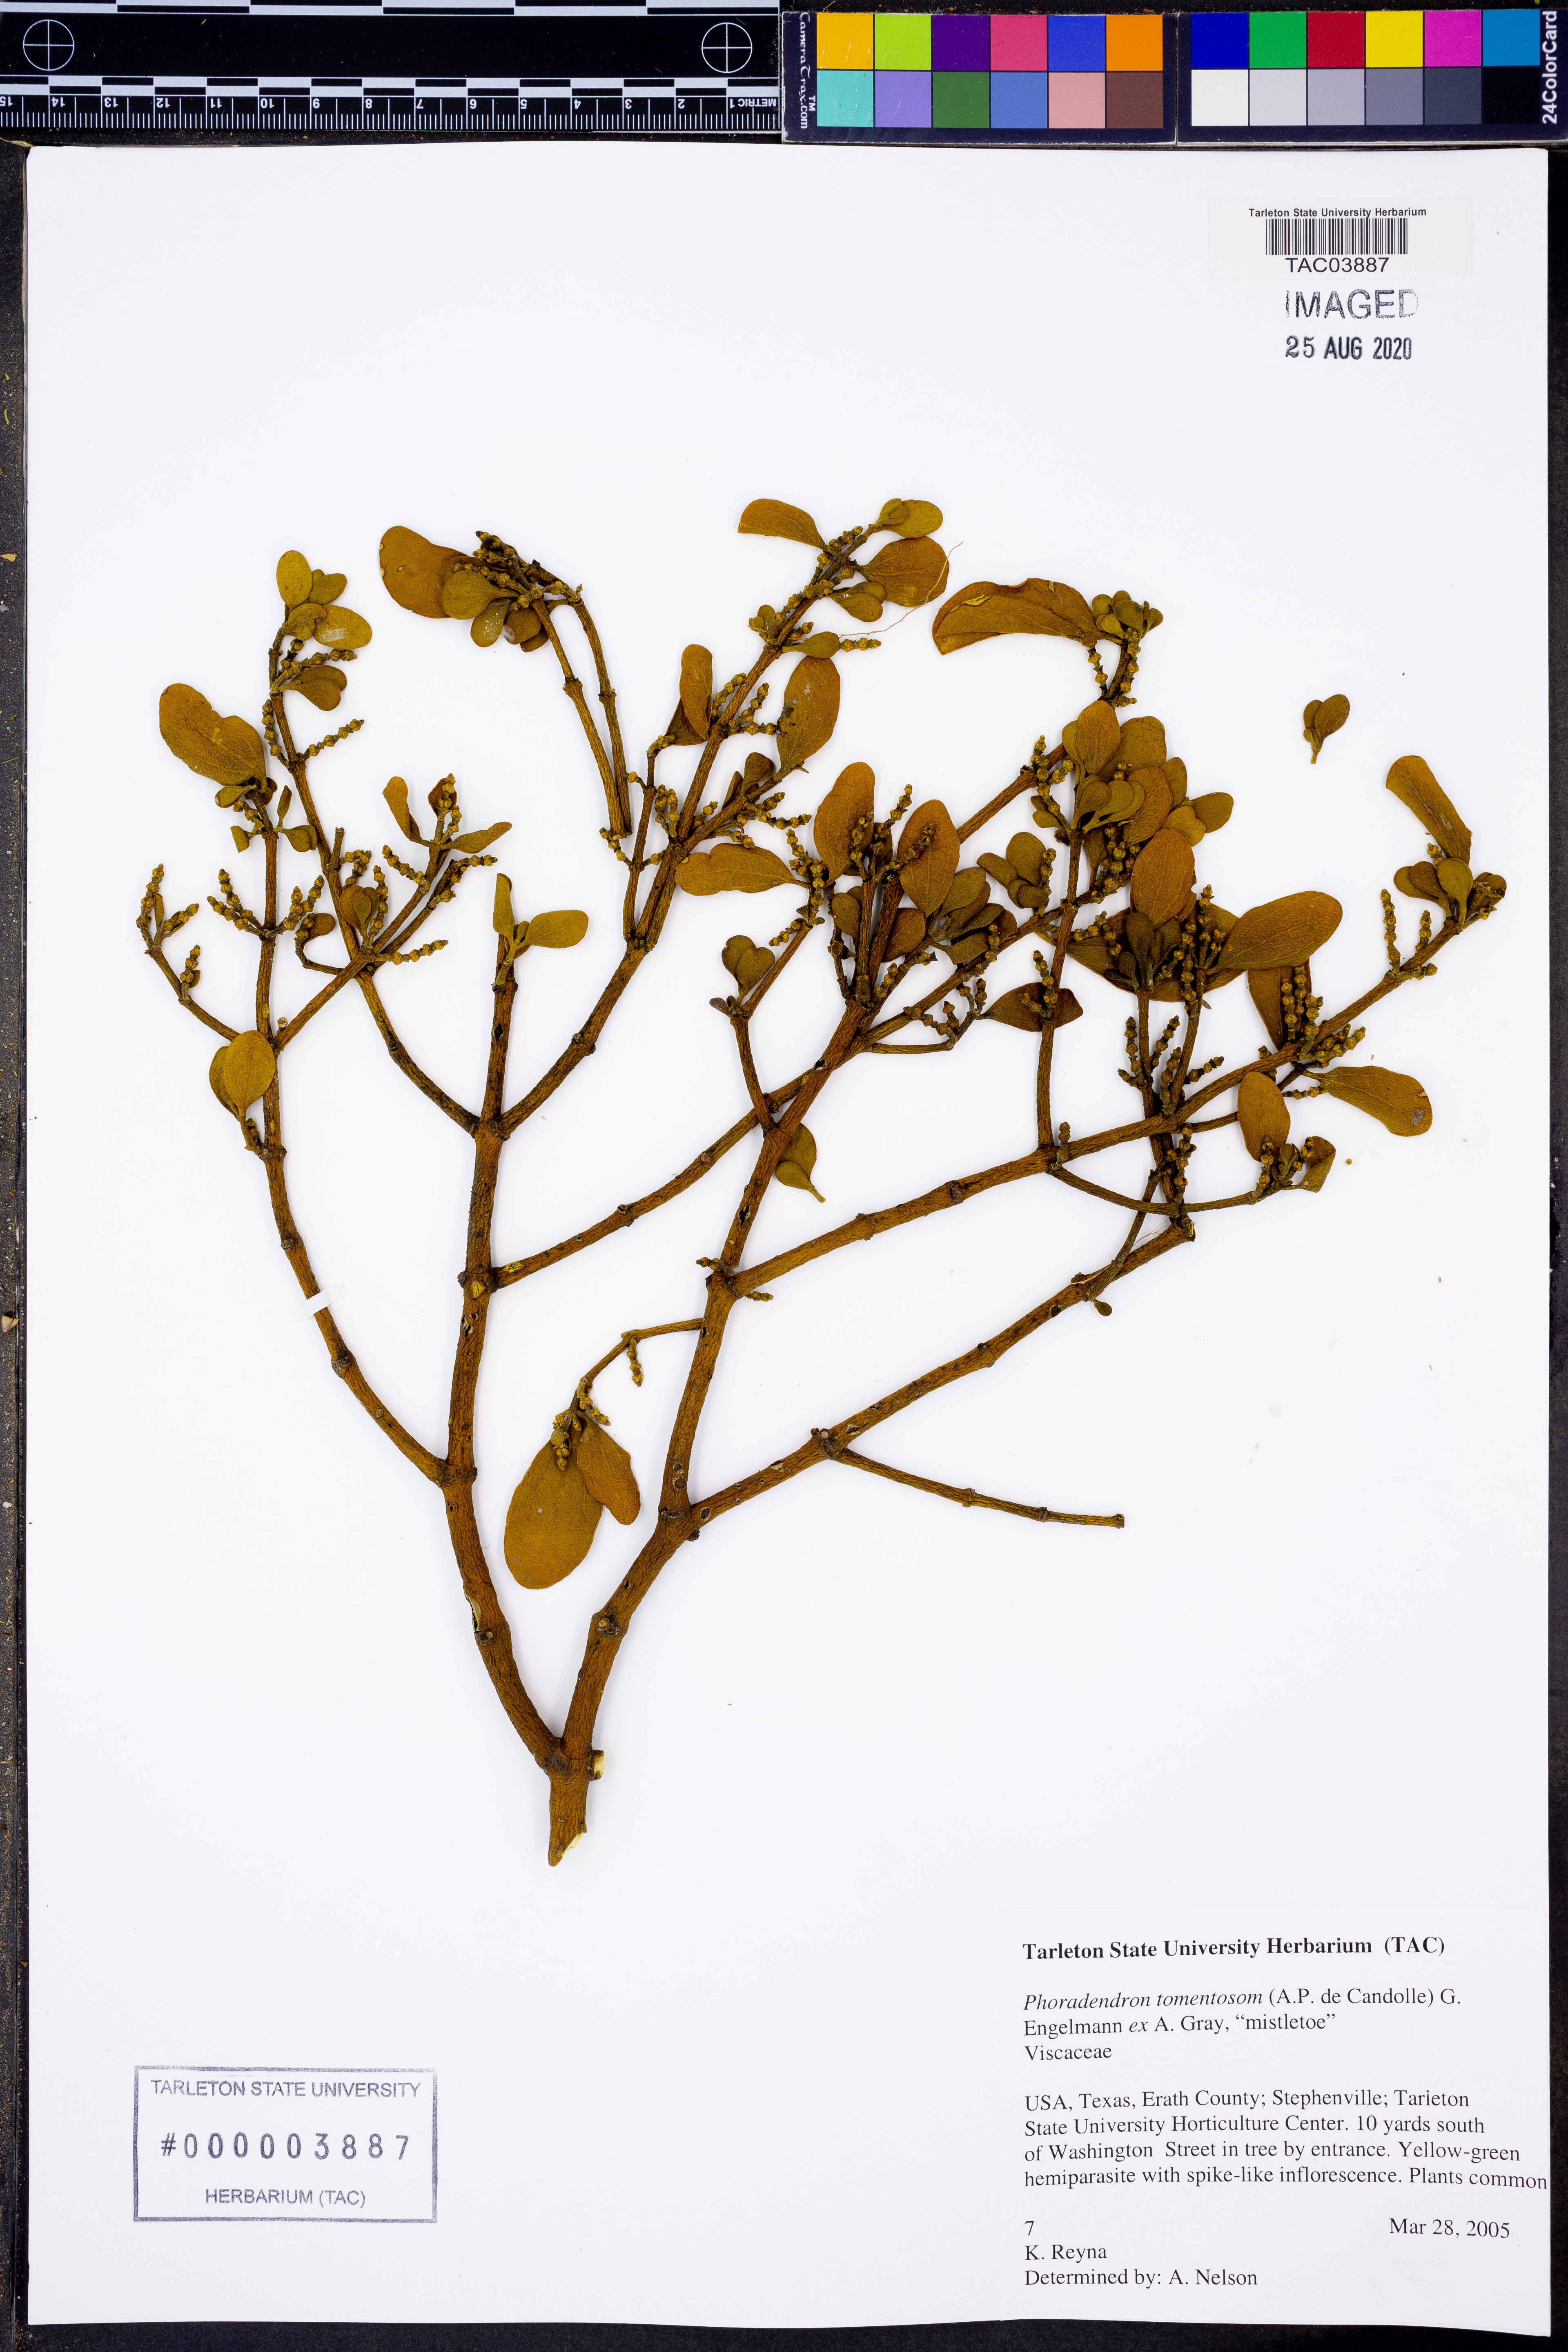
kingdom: Plantae
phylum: Tracheophyta
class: Magnoliopsida
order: Santalales
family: Viscaceae
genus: Phoradendron
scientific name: Phoradendron leucarpum
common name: Pacific mistletoe
